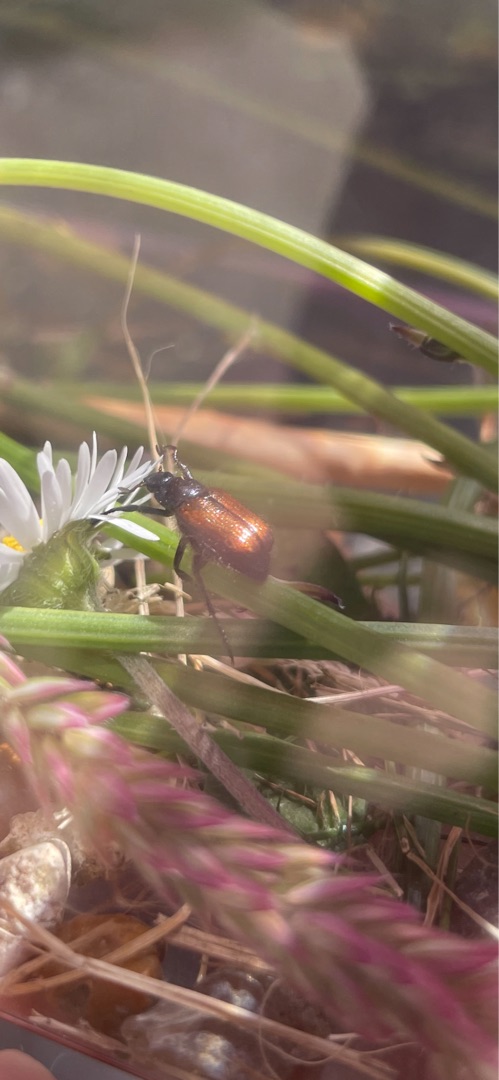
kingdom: Animalia
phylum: Arthropoda
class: Insecta
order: Coleoptera
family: Scarabaeidae
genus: Phyllopertha
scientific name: Phyllopertha horticola
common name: Gåsebille
